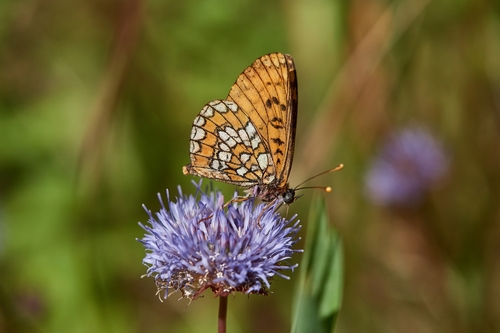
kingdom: Animalia
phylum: Arthropoda
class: Insecta
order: Lepidoptera
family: Nymphalidae
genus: Melitaea
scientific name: Melitaea deione
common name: Provençal fritillary
